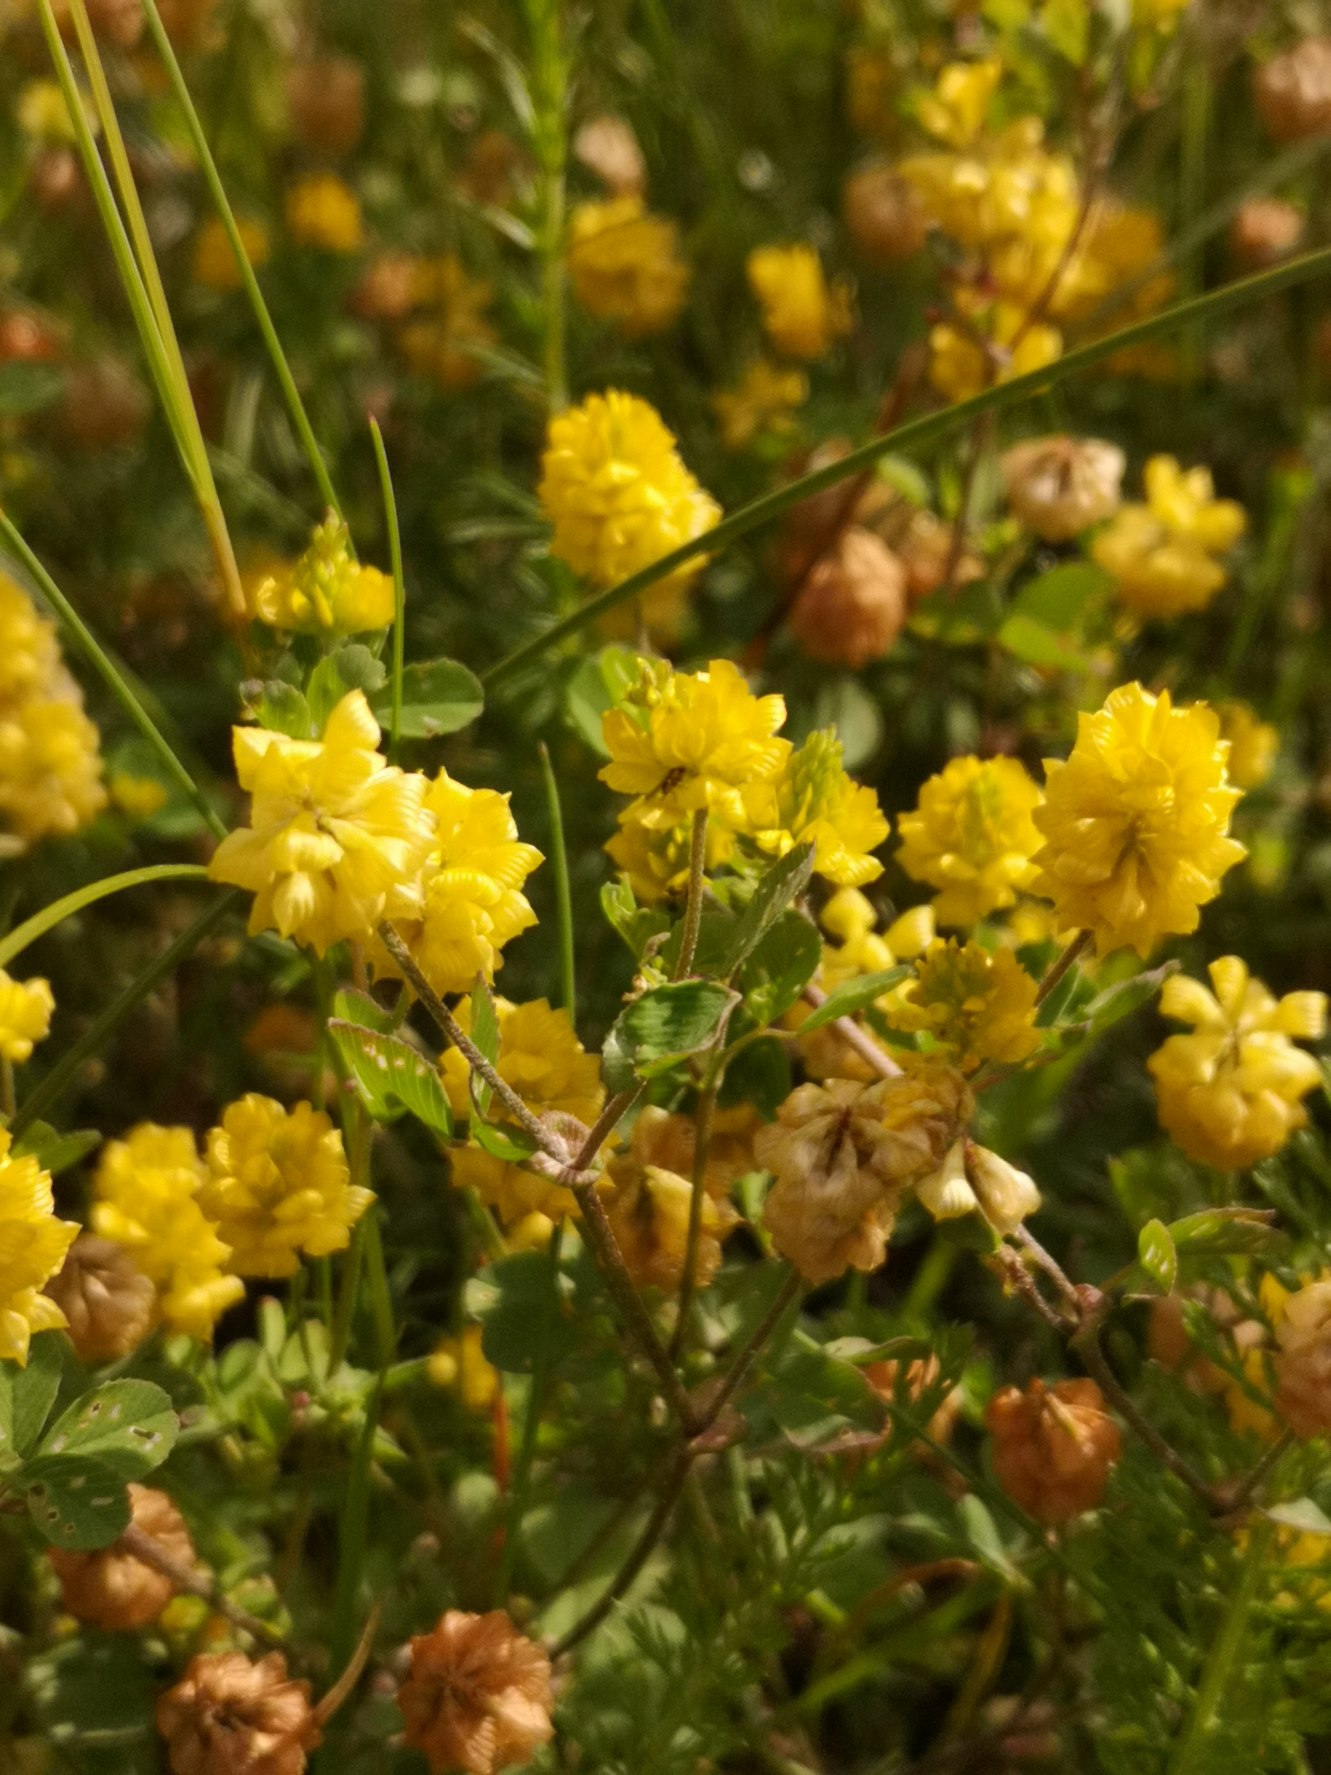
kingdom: Plantae
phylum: Tracheophyta
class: Magnoliopsida
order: Fabales
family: Fabaceae
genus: Trifolium
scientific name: Trifolium campestre
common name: Gul kløver
